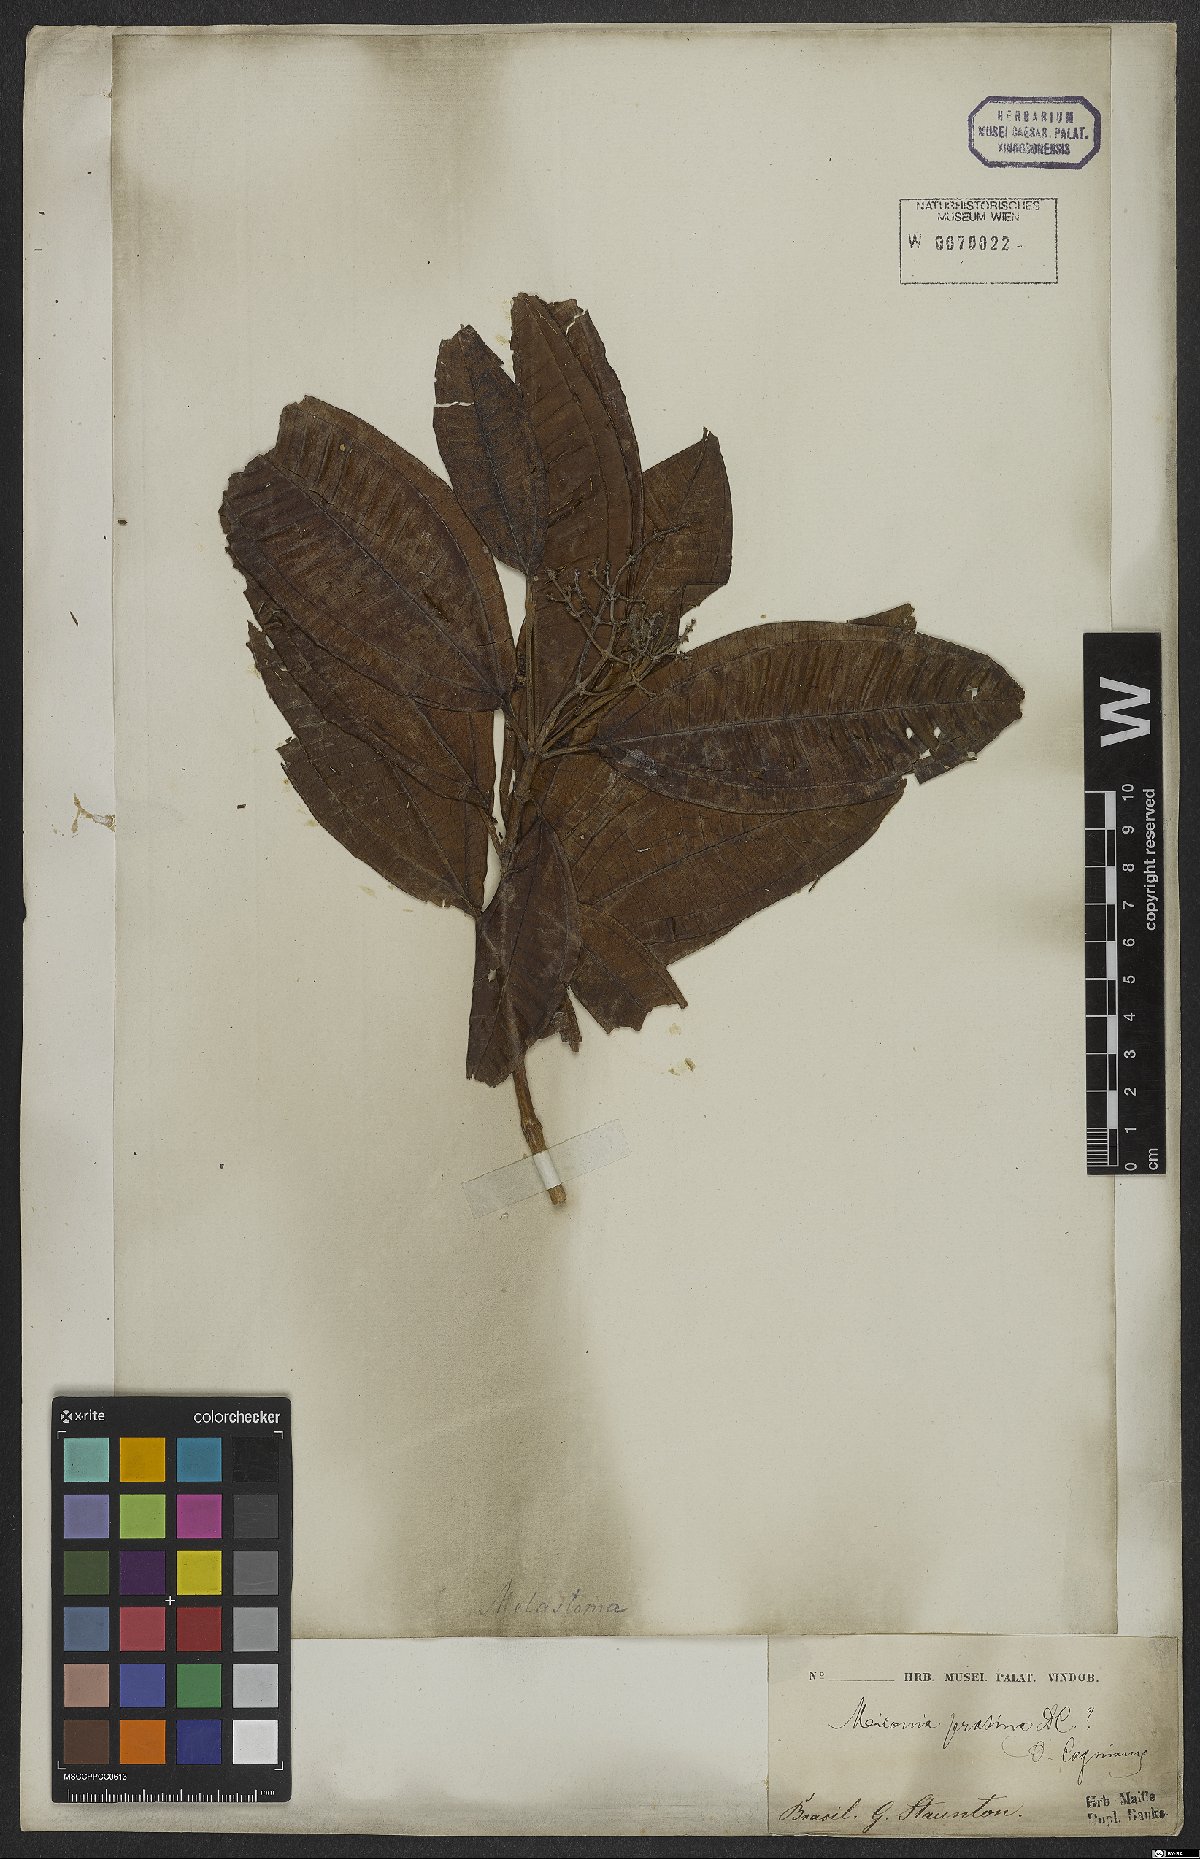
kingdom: Plantae
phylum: Tracheophyta
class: Magnoliopsida
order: Myrtales
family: Melastomataceae
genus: Miconia
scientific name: Miconia prasina
